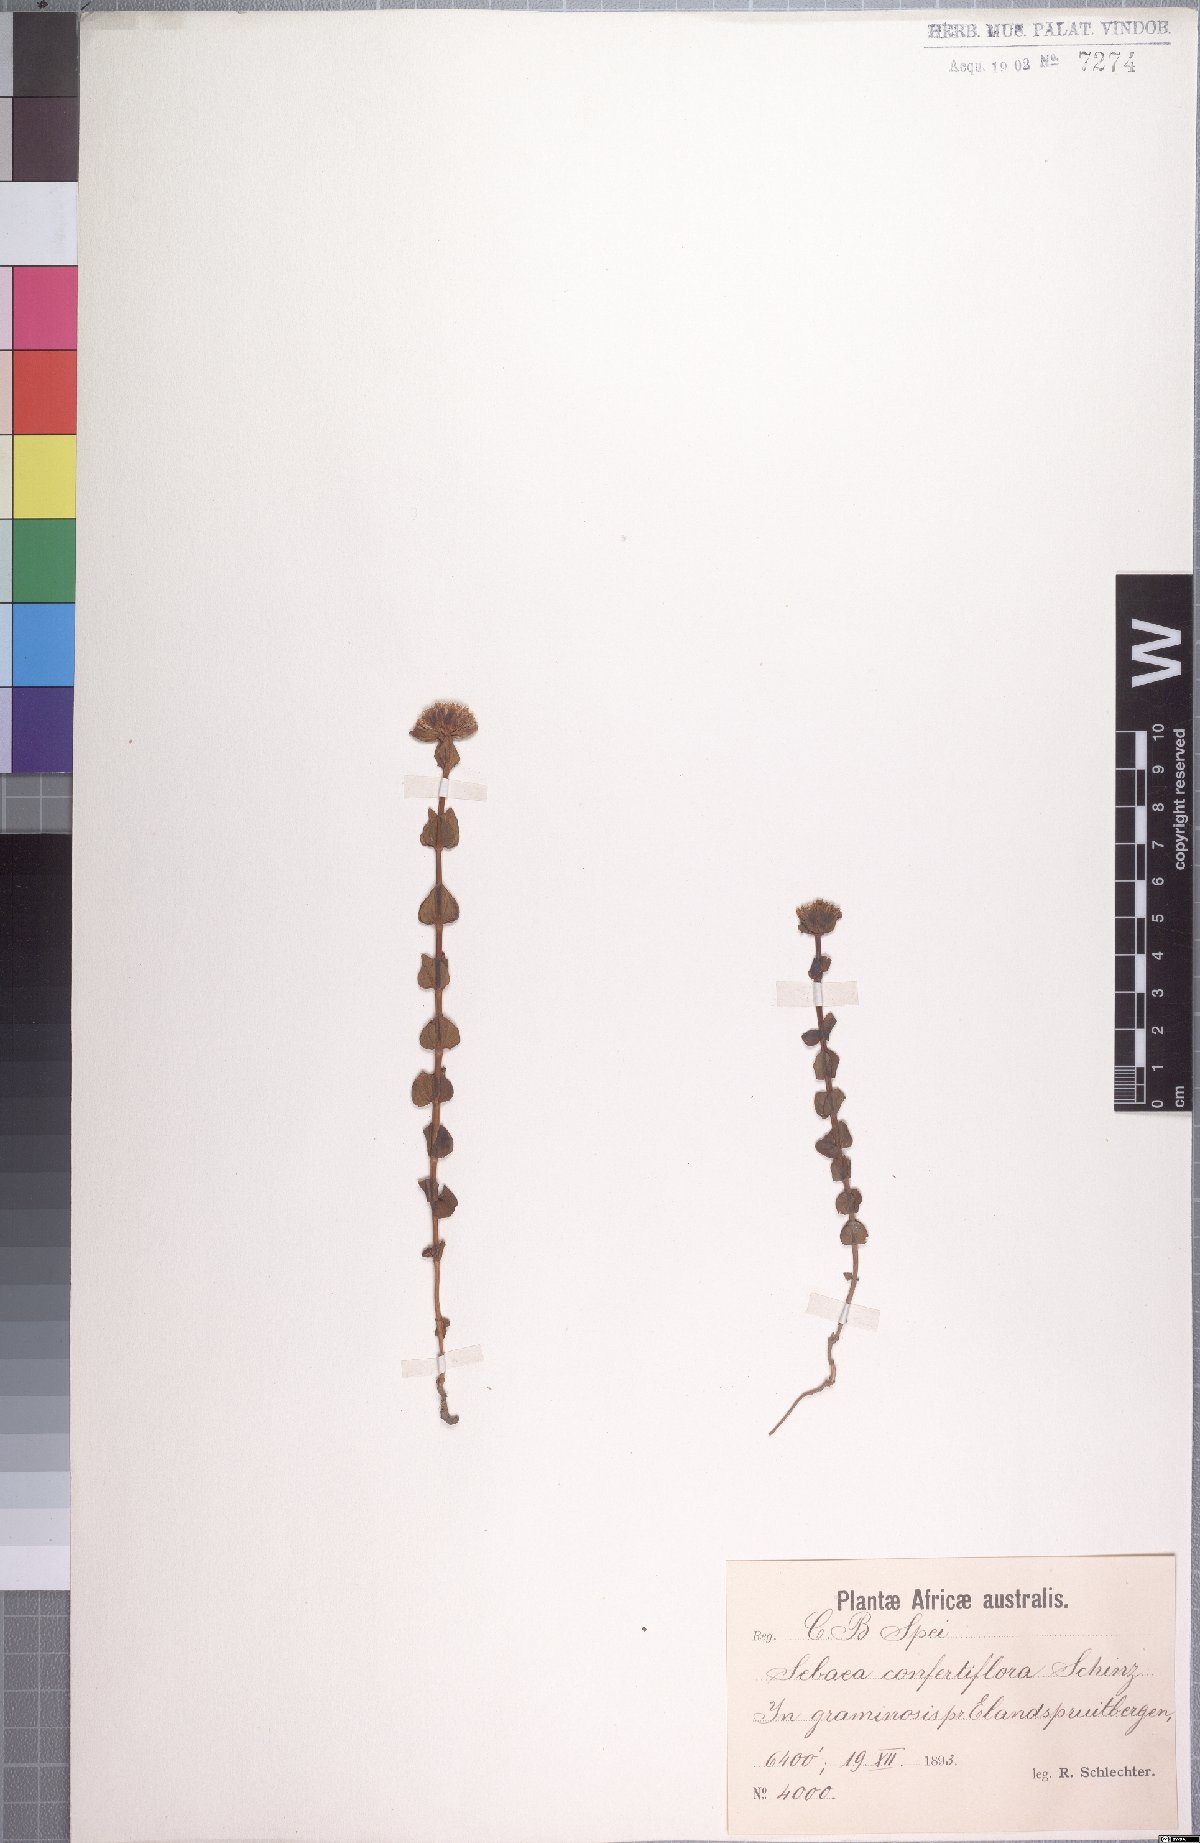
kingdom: Plantae
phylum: Tracheophyta
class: Magnoliopsida
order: Gentianales
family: Gentianaceae
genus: Sebaea
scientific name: Sebaea sedoides
